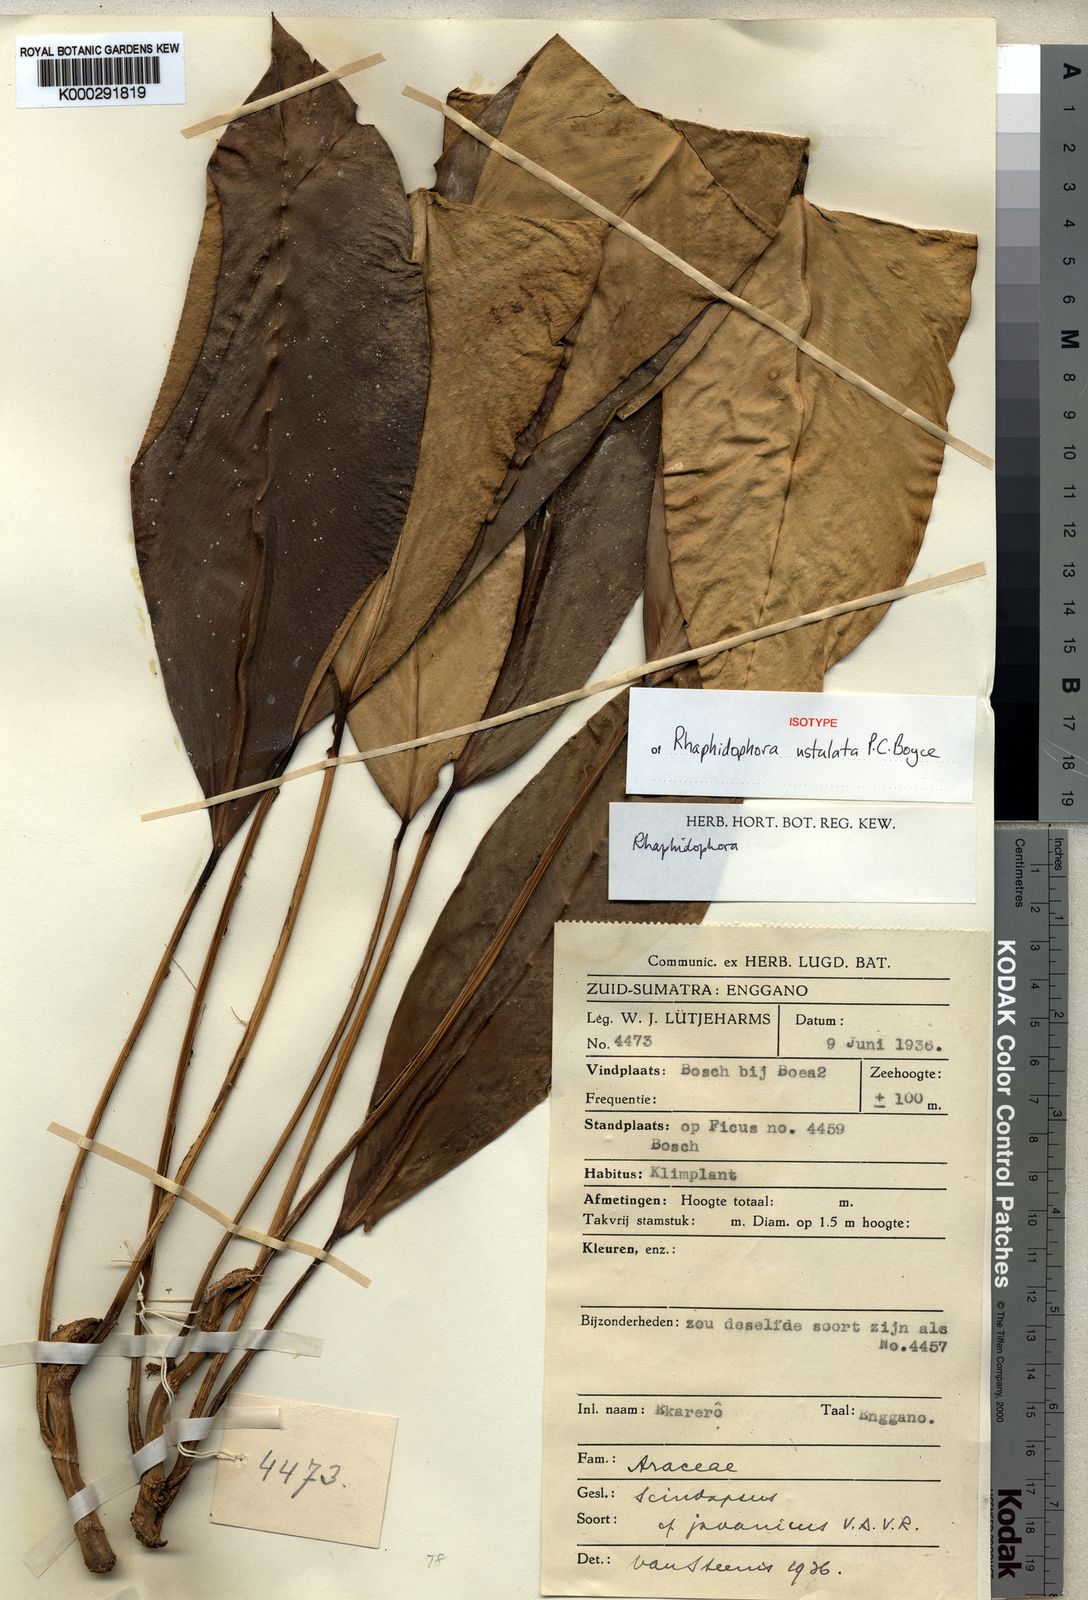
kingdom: Plantae
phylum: Tracheophyta
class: Liliopsida
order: Alismatales
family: Araceae
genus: Rhaphidophora
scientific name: Rhaphidophora ustulata
